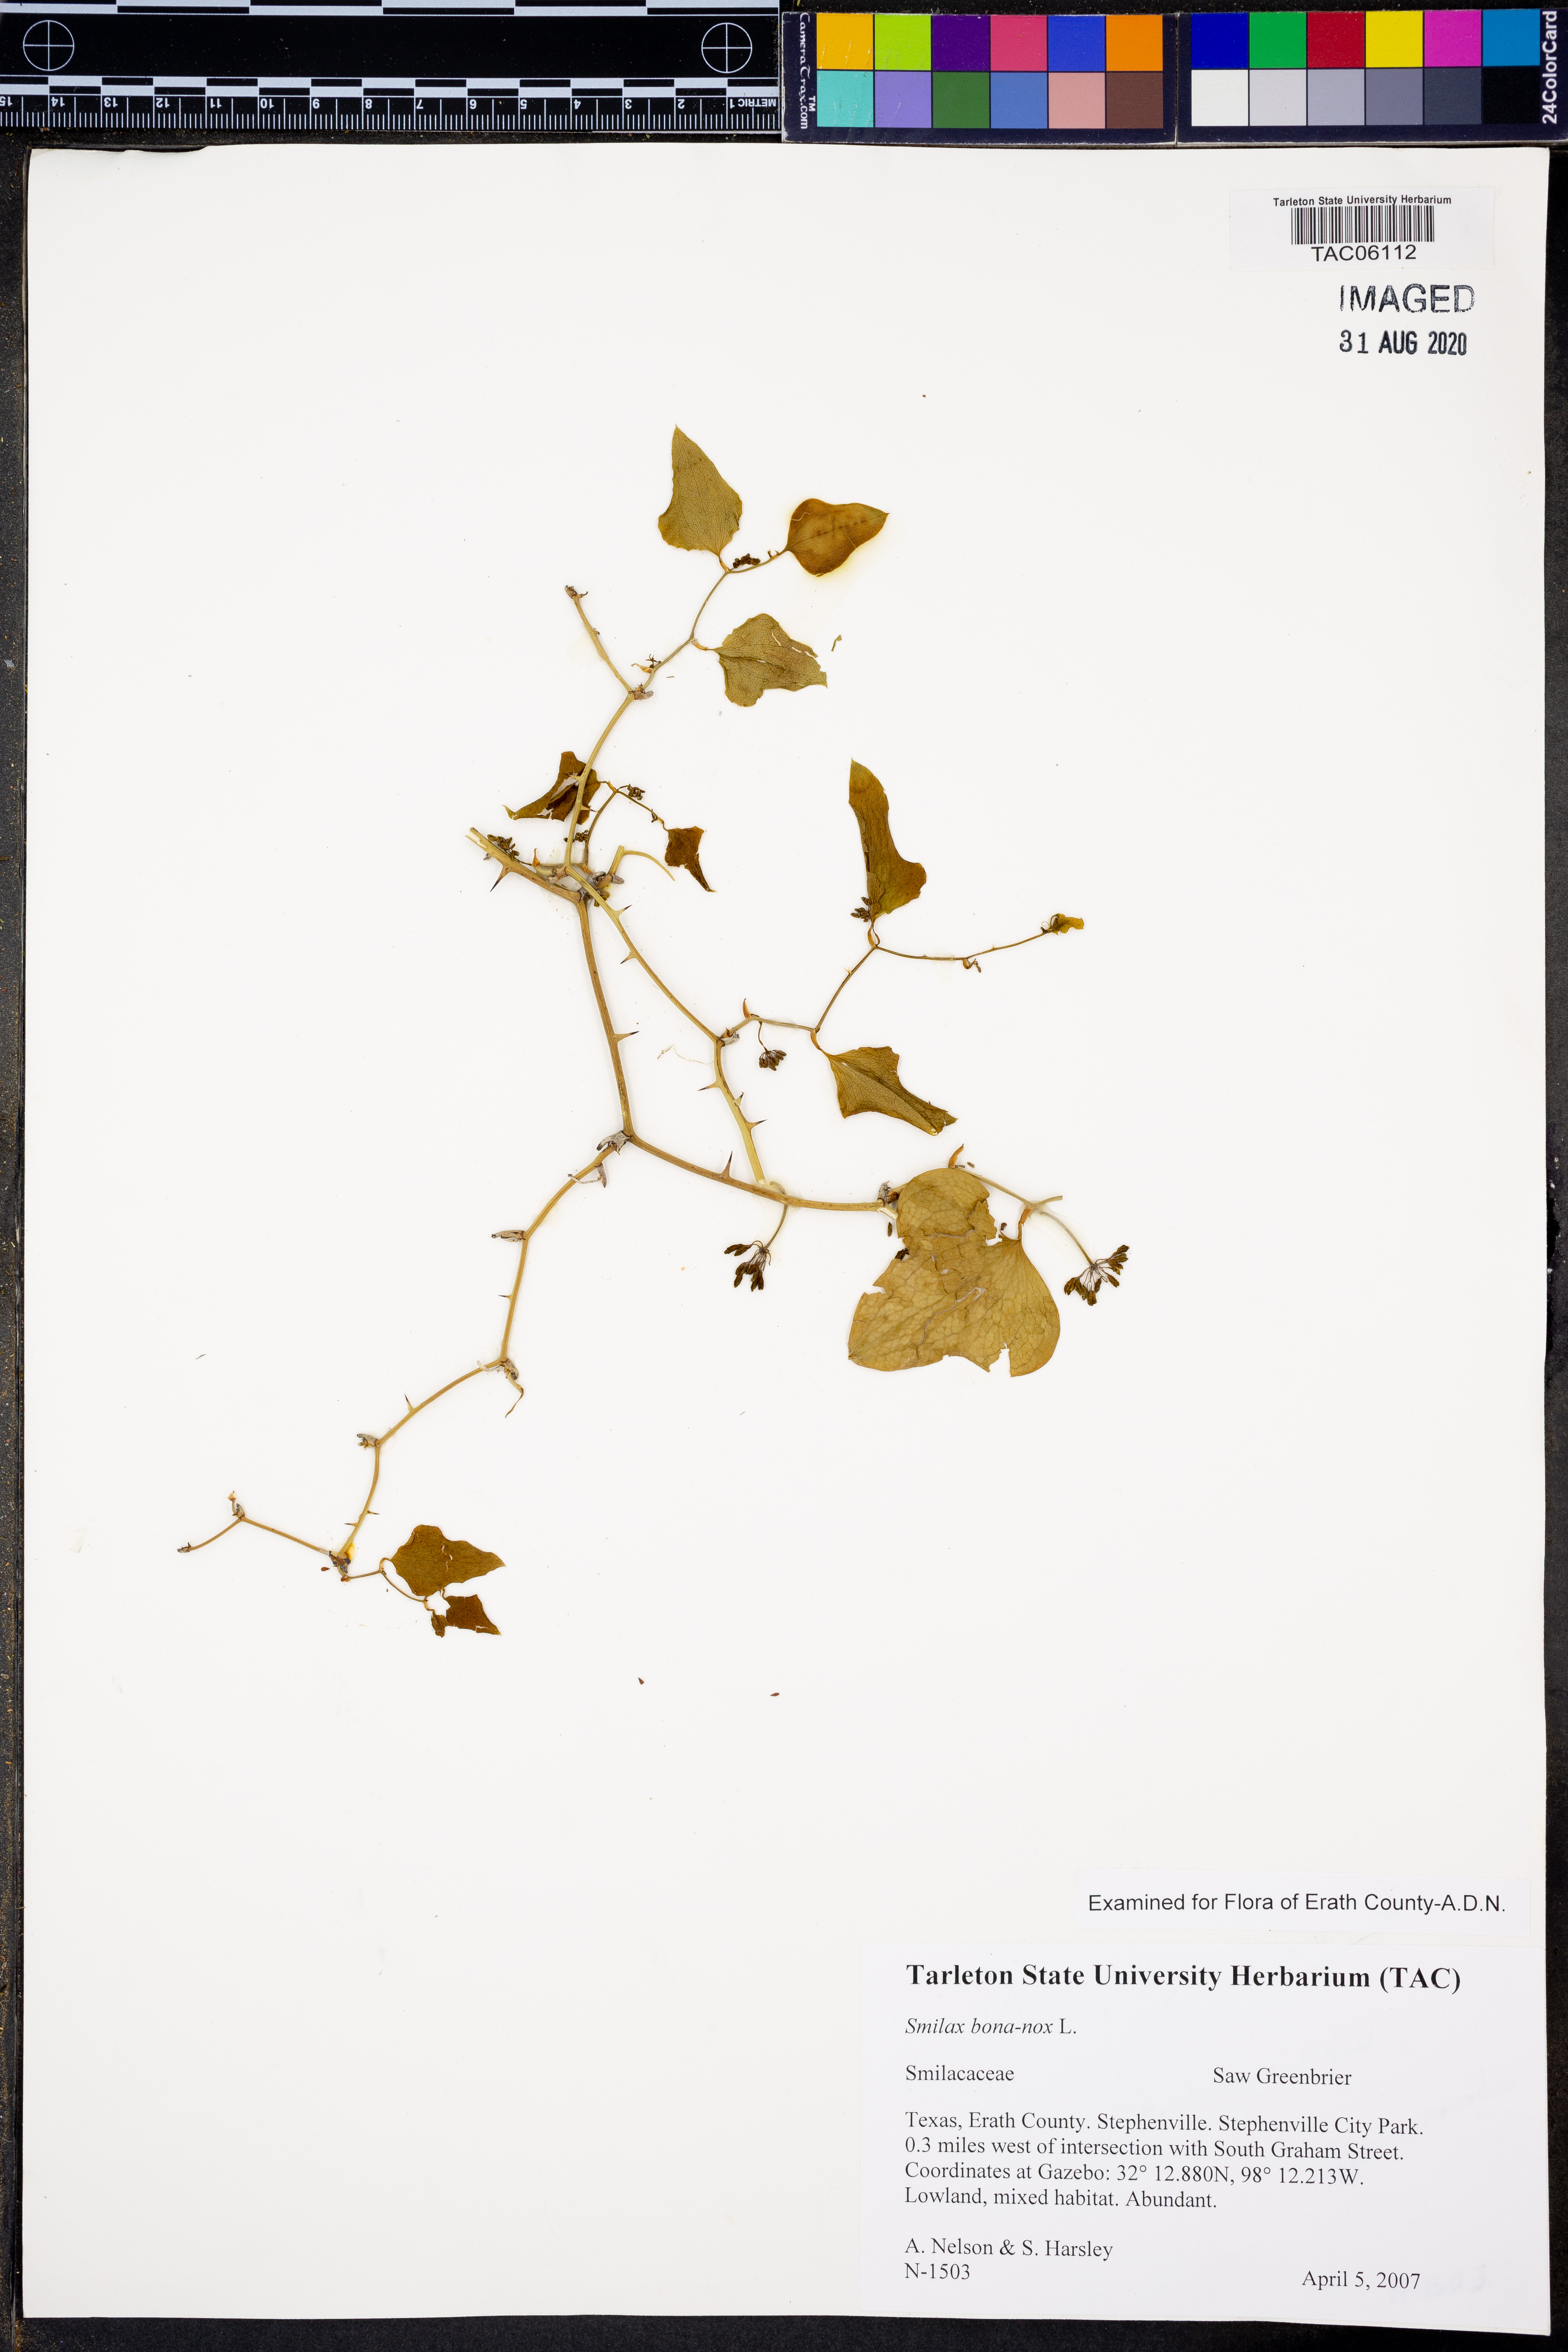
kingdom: Plantae
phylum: Tracheophyta
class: Liliopsida
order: Liliales
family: Smilacaceae
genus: Smilax
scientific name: Smilax bona-nox
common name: Catbrier
